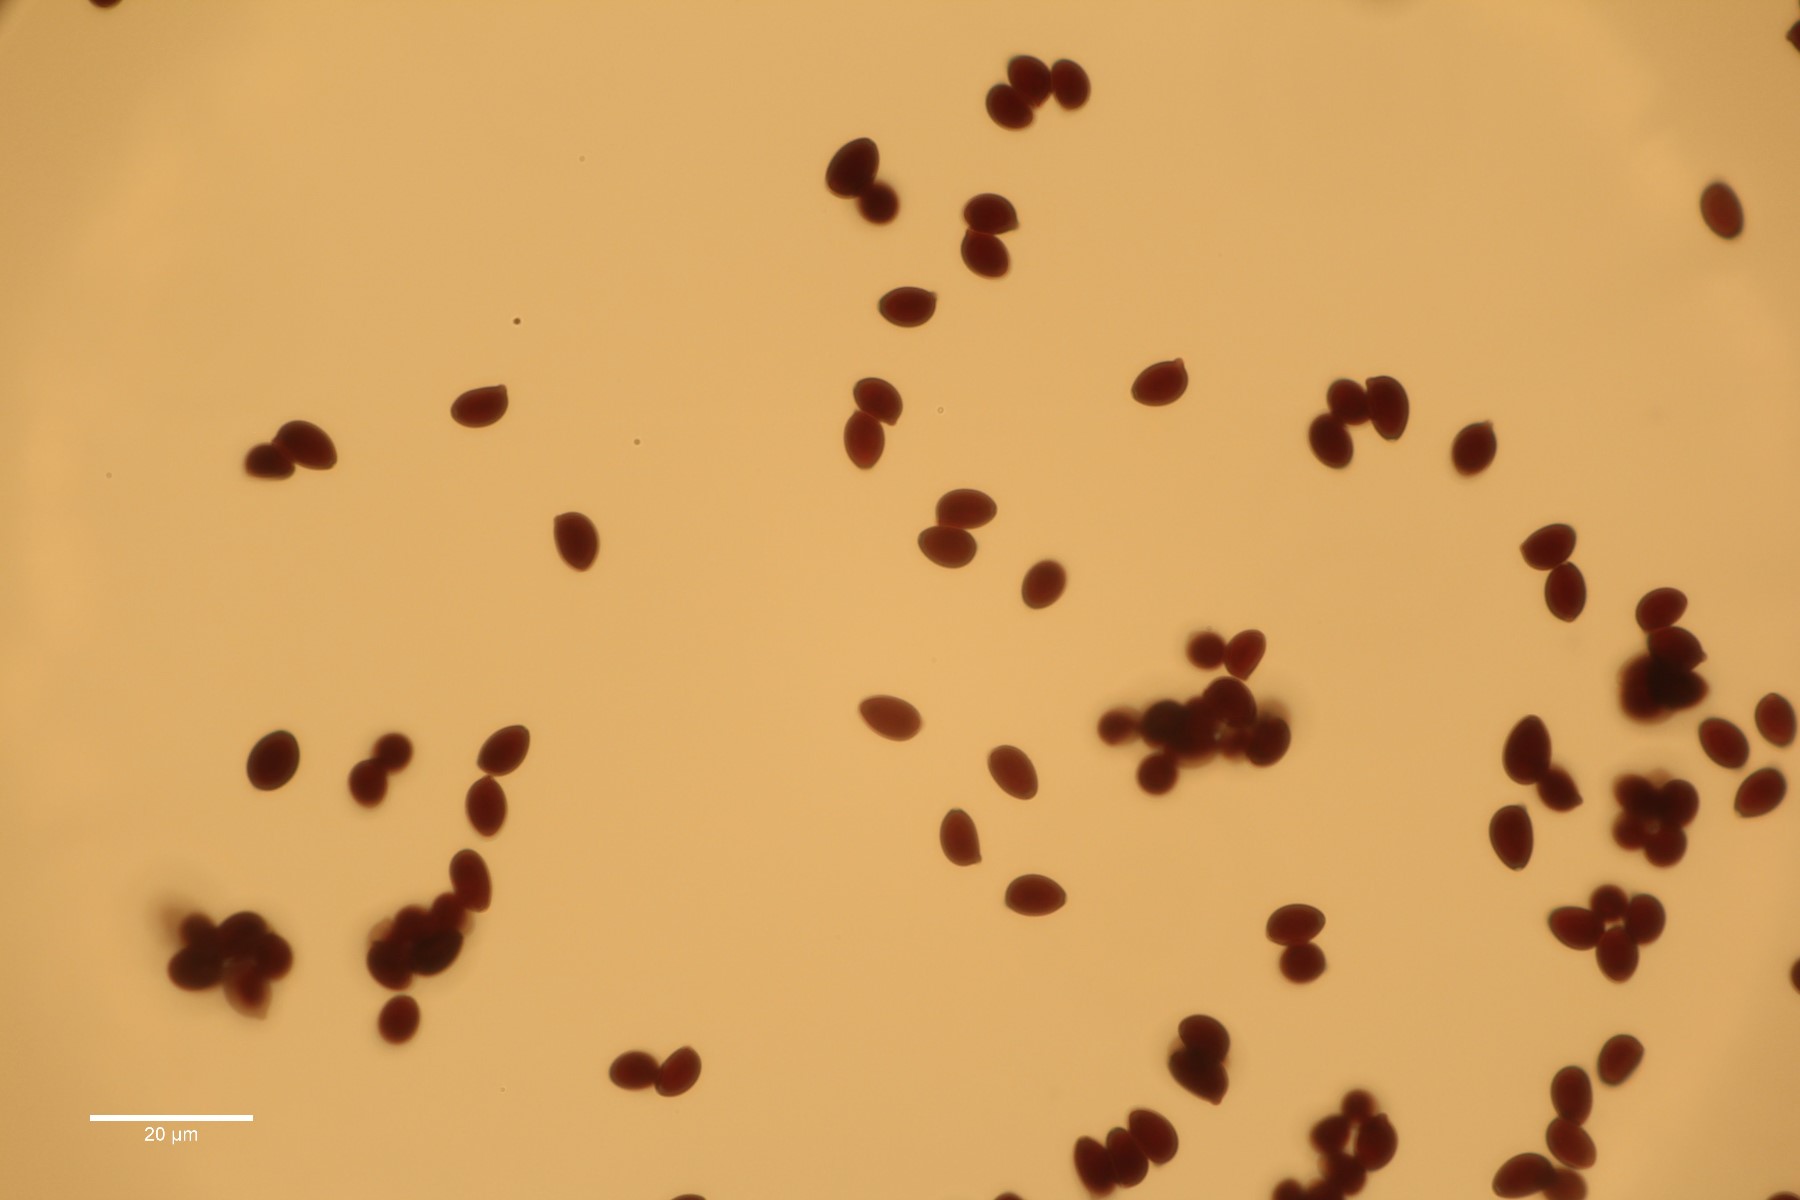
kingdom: Fungi
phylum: Basidiomycota
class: Agaricomycetes
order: Agaricales
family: Agaricaceae
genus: Leucoagaricus
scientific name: Leucoagaricus leucothites
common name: rosabladet silkehat
